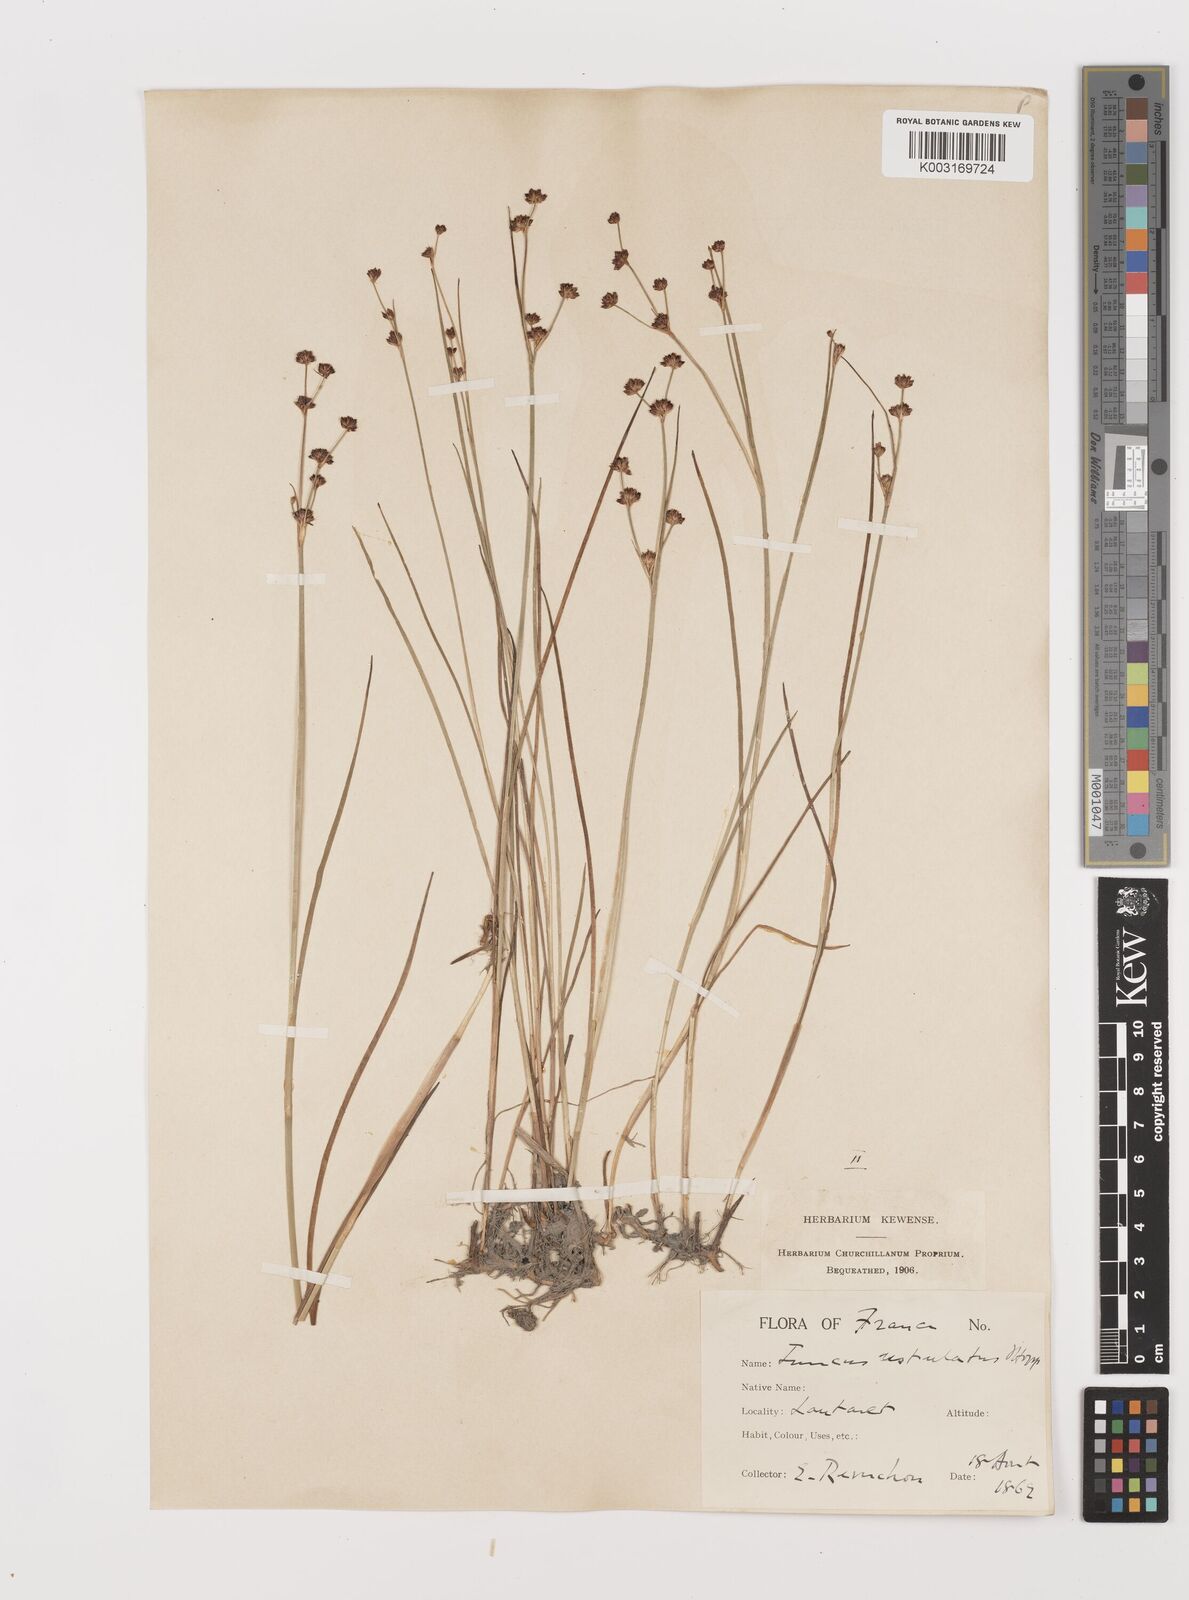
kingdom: Plantae
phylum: Tracheophyta
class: Liliopsida
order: Poales
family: Juncaceae
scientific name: Juncaceae
